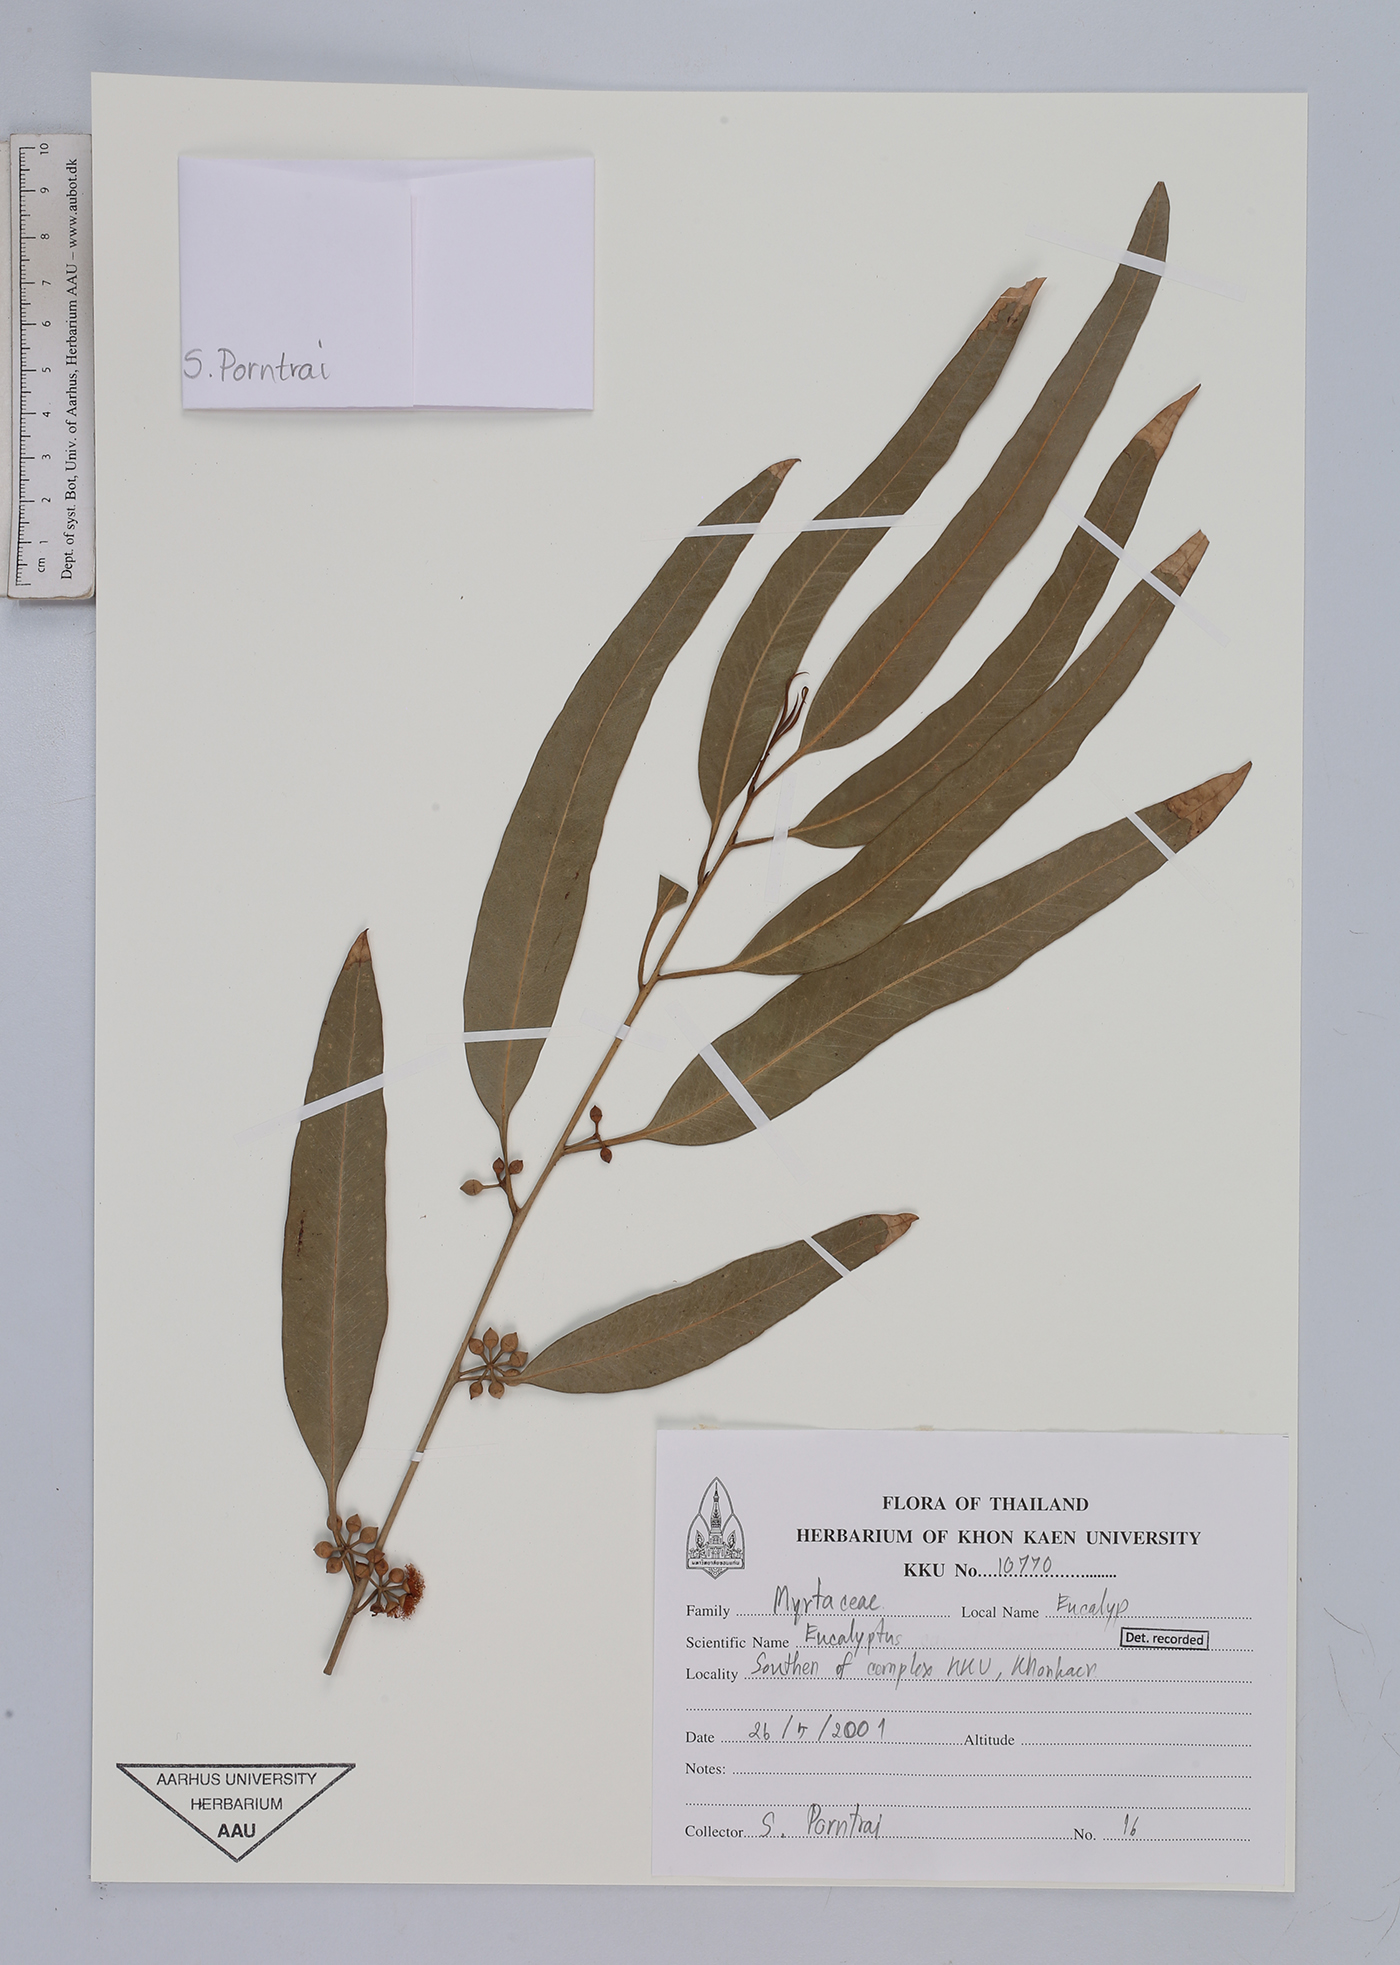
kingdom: Plantae
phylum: Tracheophyta
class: Magnoliopsida
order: Myrtales
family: Myrtaceae
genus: Eucalyptus
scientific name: Eucalyptus
